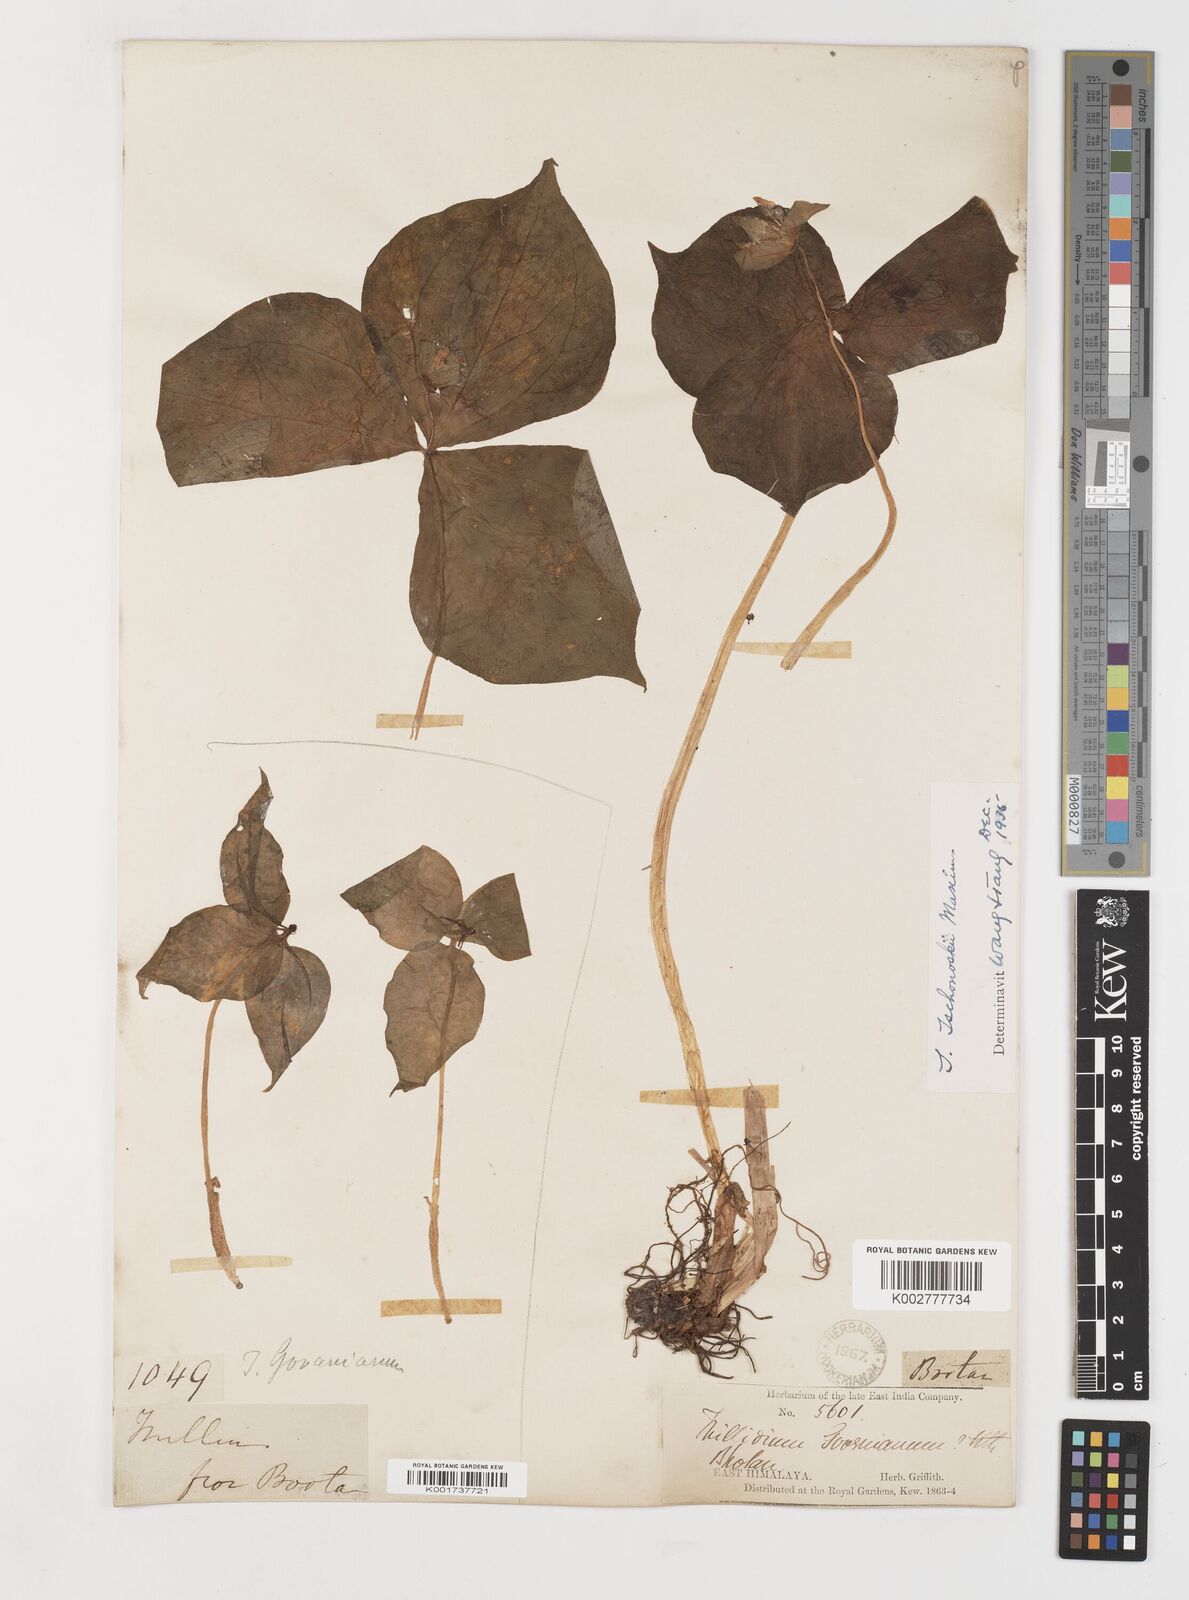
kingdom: Plantae
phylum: Tracheophyta
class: Liliopsida
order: Liliales
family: Melanthiaceae
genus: Trillium
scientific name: Trillium tschonoskii
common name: A pearl on head
